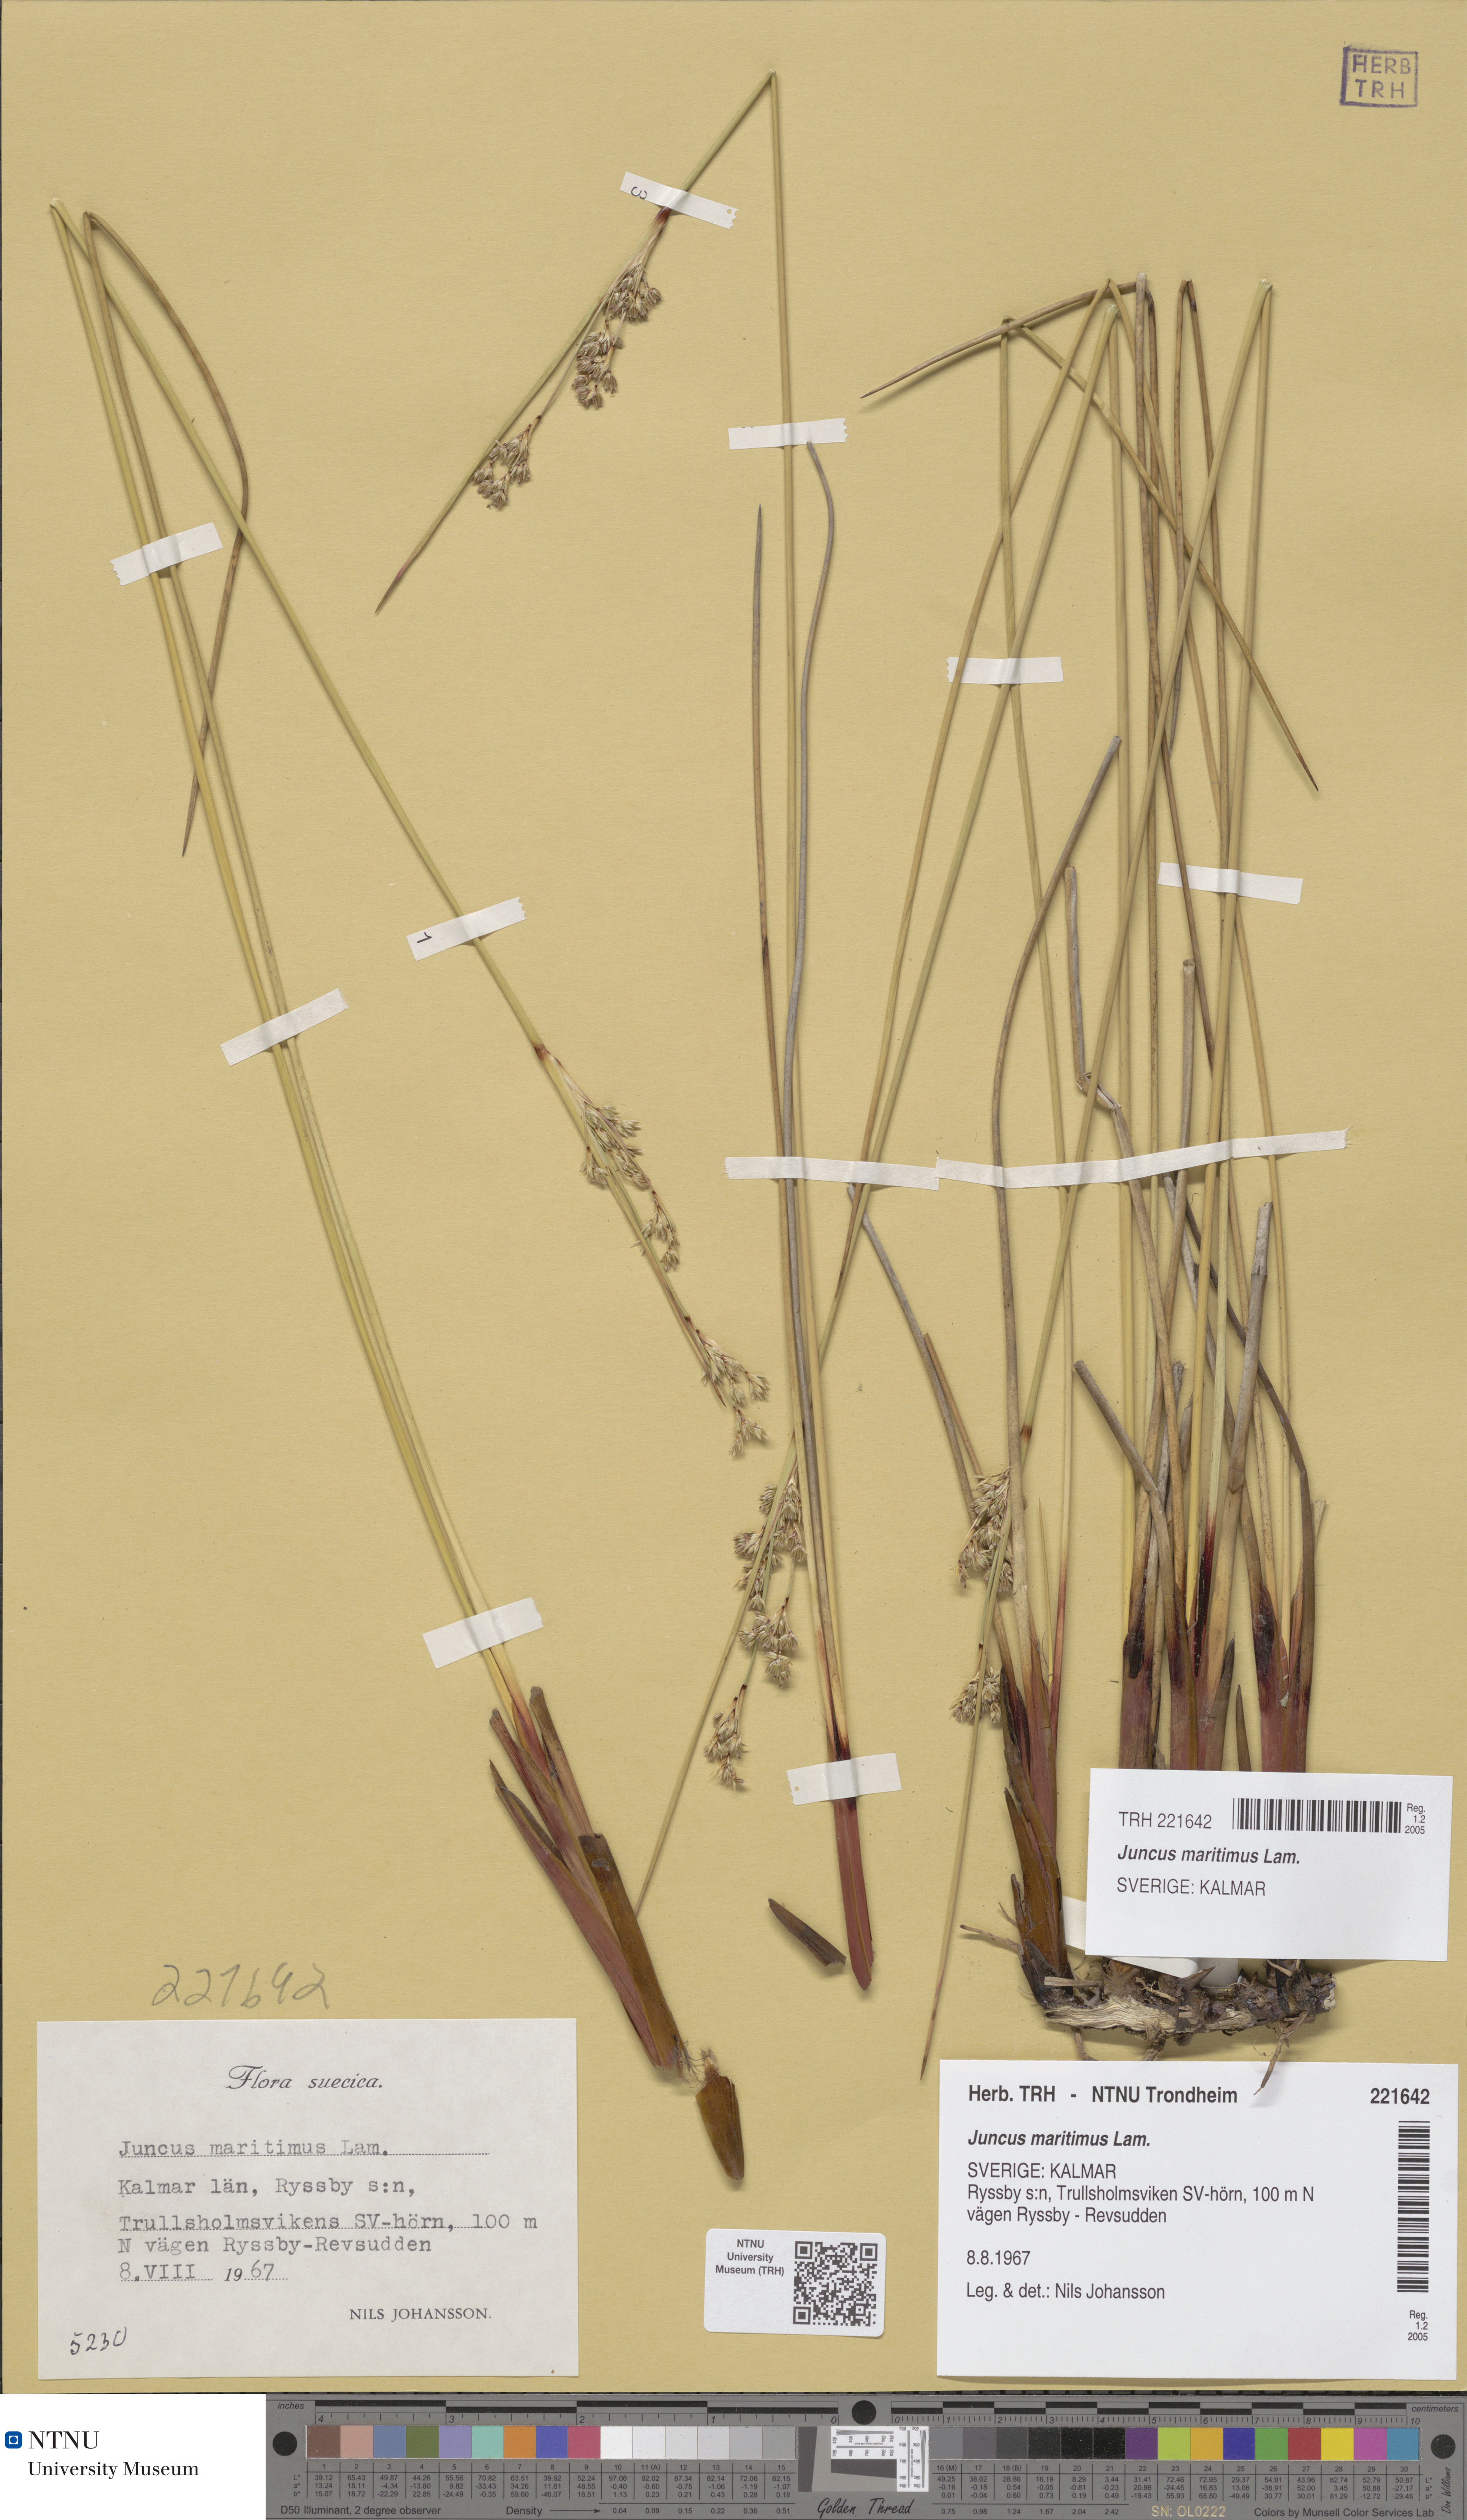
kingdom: Plantae
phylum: Tracheophyta
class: Liliopsida
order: Poales
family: Juncaceae
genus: Juncus
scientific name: Juncus maritimus
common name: Sea rush
